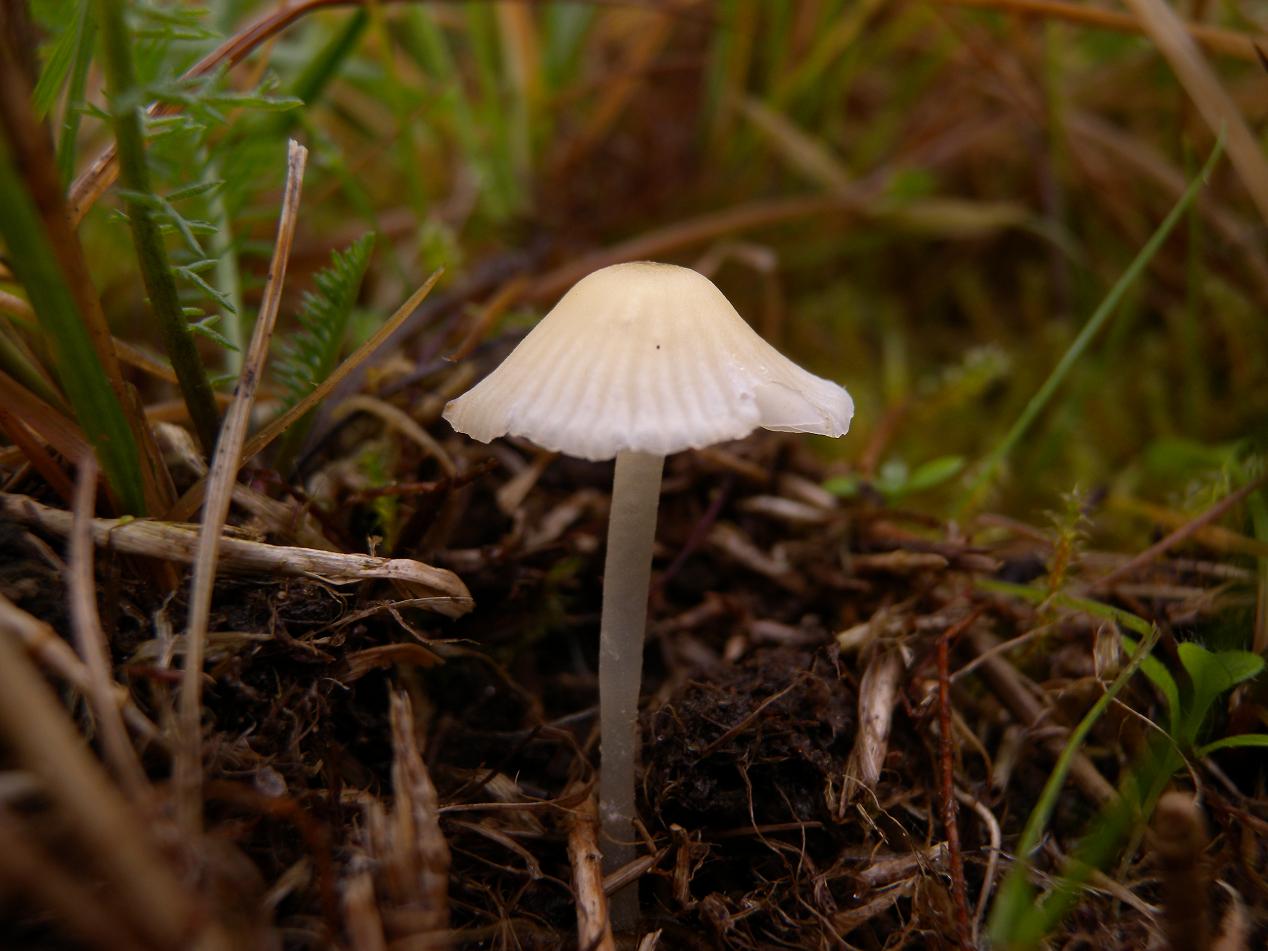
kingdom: Fungi
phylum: Basidiomycota
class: Agaricomycetes
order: Agaricales
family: Mycenaceae
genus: Atheniella
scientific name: Atheniella flavoalba
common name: gulhvid huesvamp
